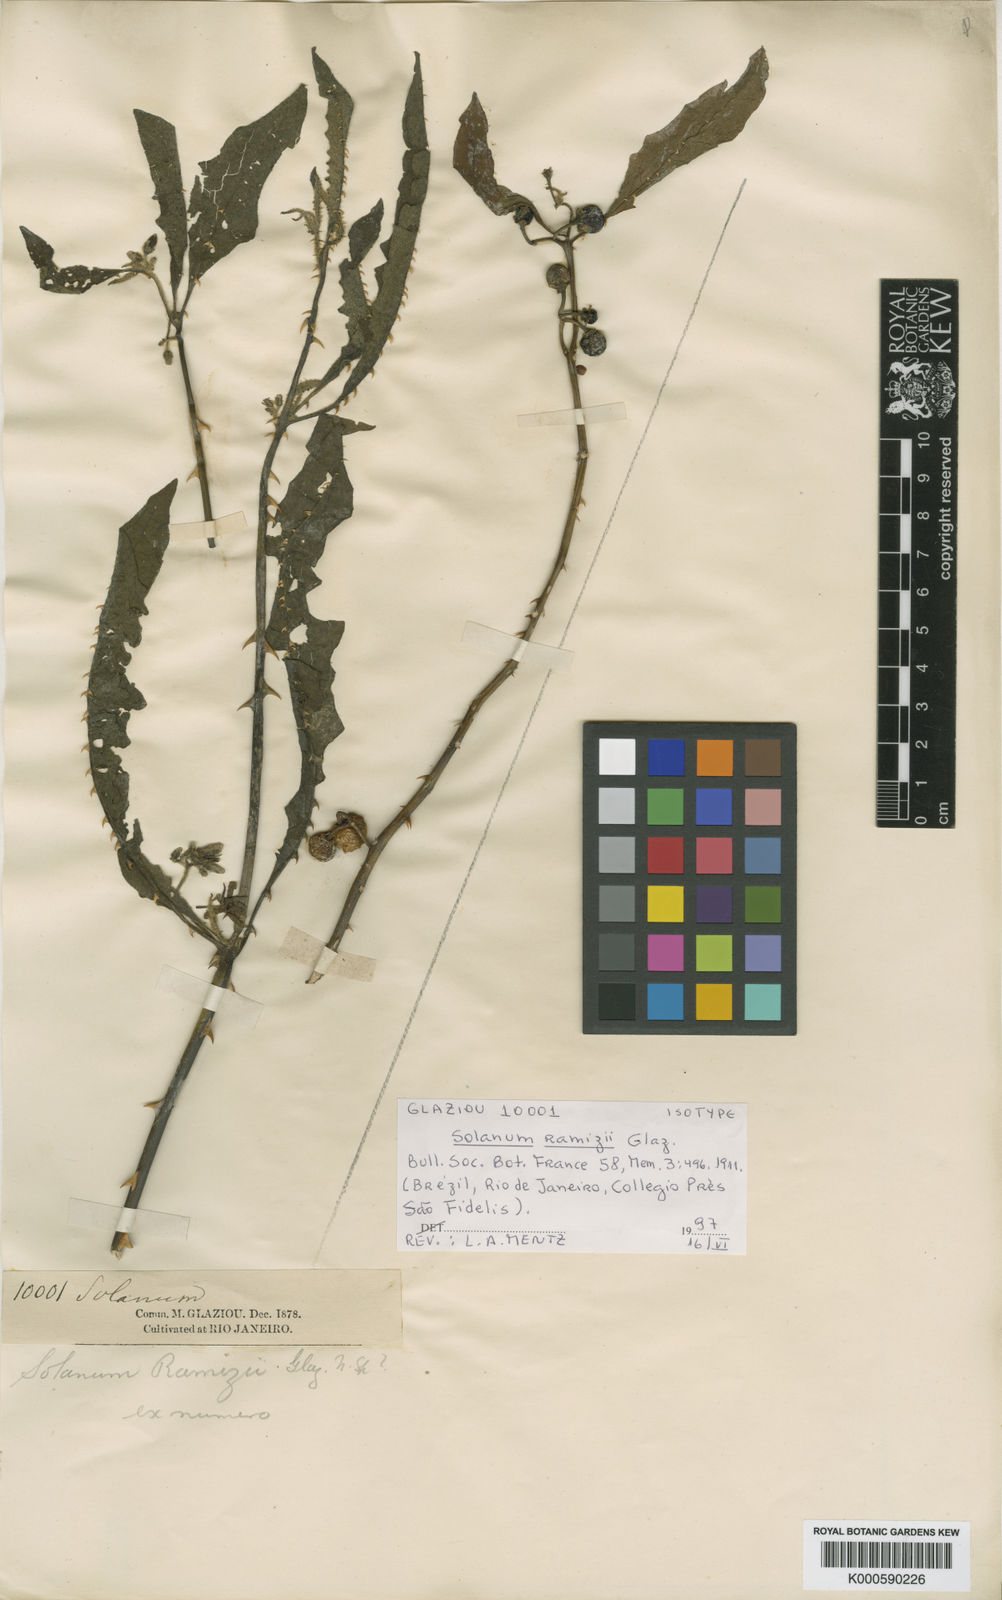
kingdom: Plantae
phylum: Tracheophyta
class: Magnoliopsida
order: Solanales
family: Solanaceae
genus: Solanum
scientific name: Solanum ramizii
